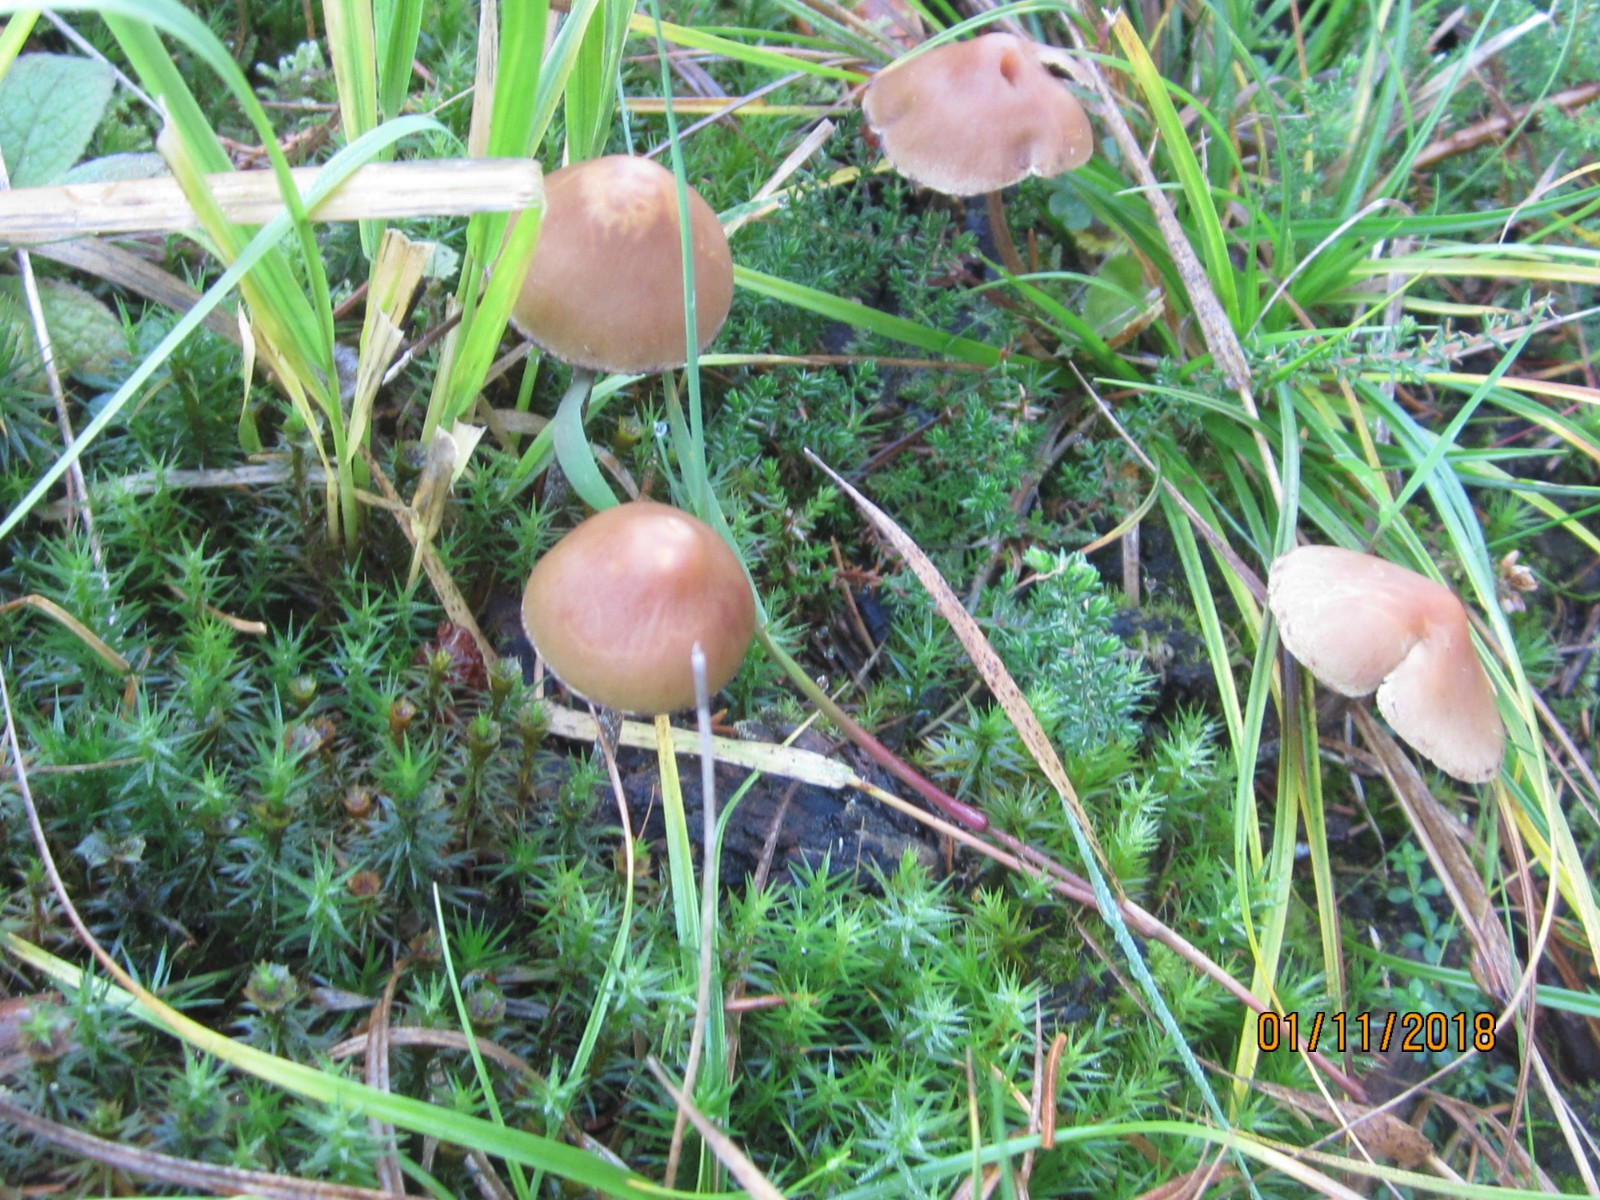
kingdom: Fungi
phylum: Basidiomycota
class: Agaricomycetes
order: Agaricales
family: Strophariaceae
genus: Hypholoma
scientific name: Hypholoma marginatum
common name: enlig svovlhat
